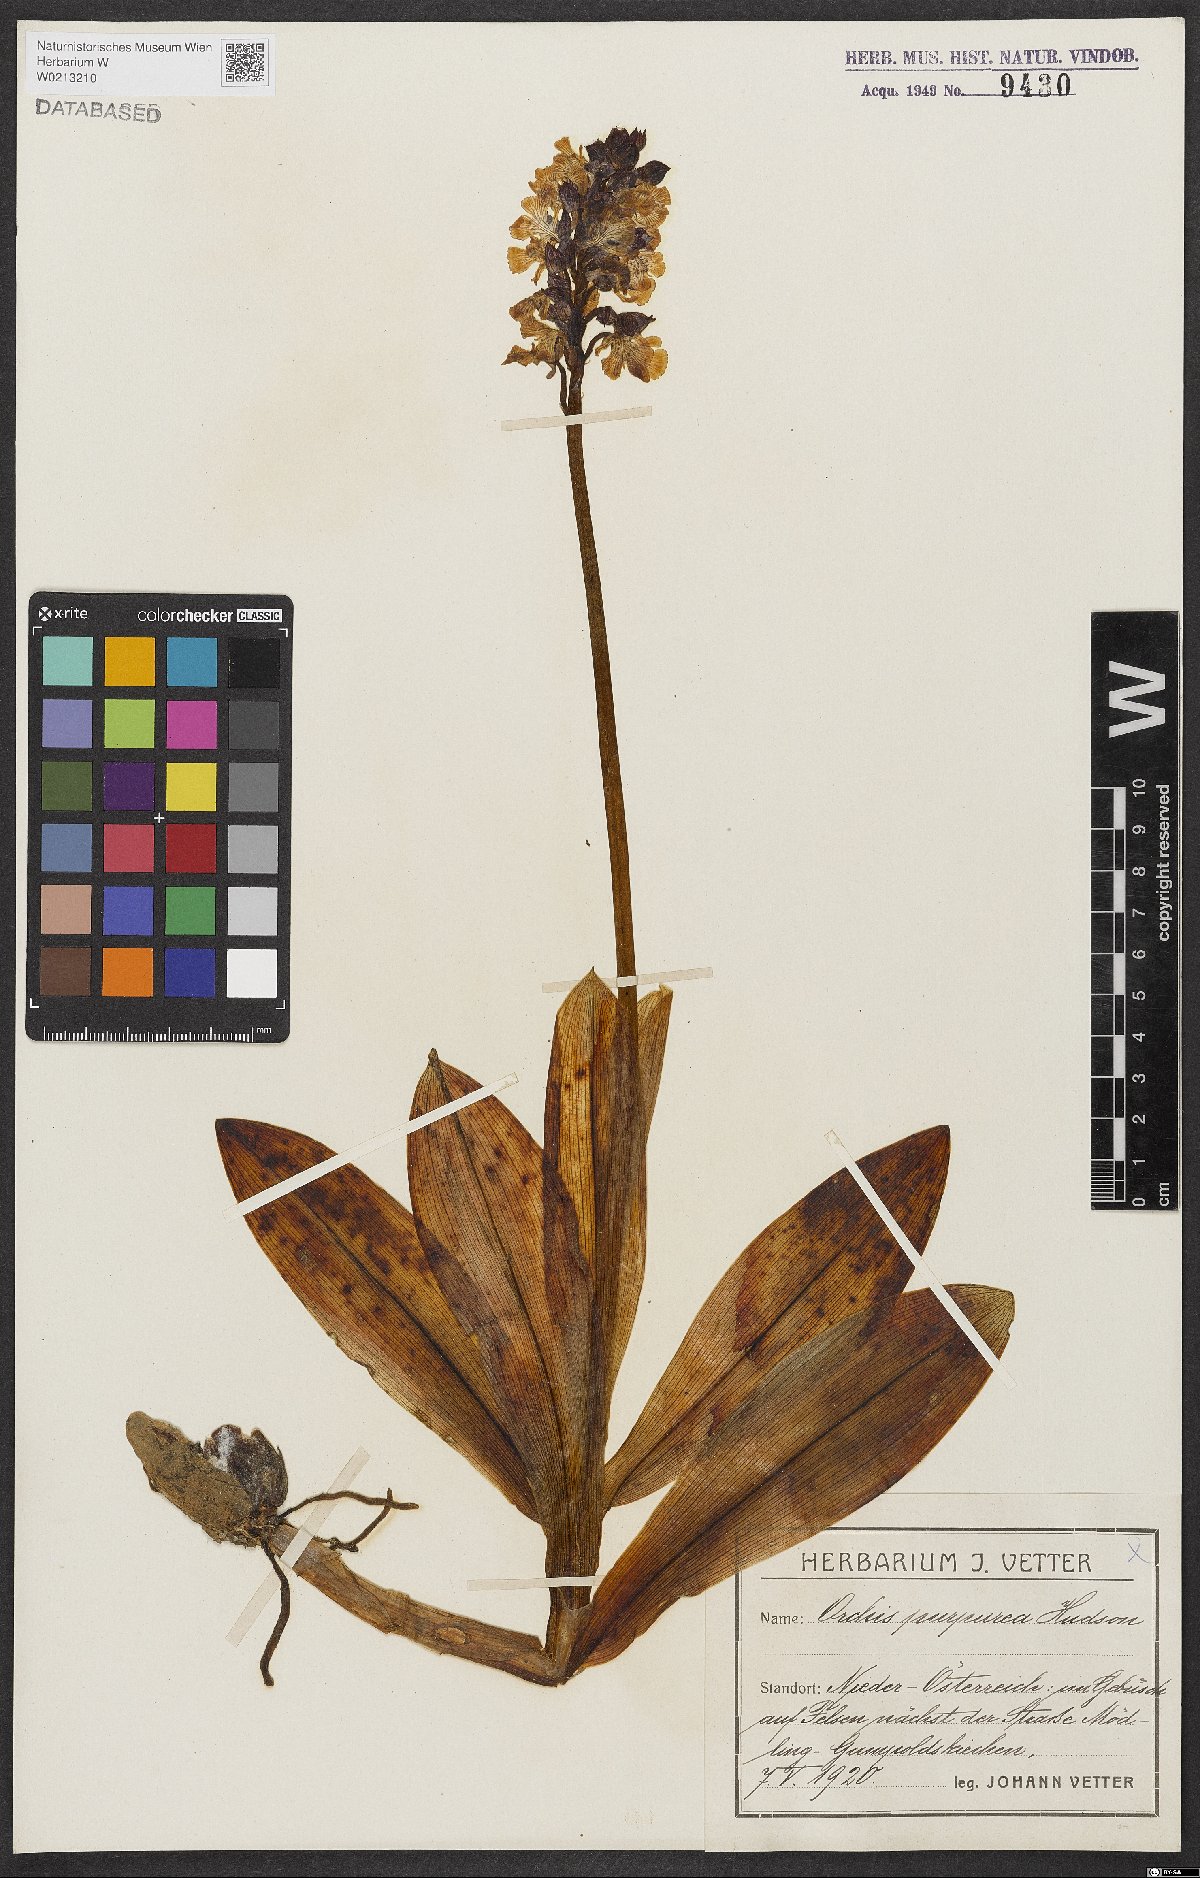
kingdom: Plantae
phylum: Tracheophyta
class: Liliopsida
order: Asparagales
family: Orchidaceae
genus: Orchis
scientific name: Orchis purpurea
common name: Lady orchid
